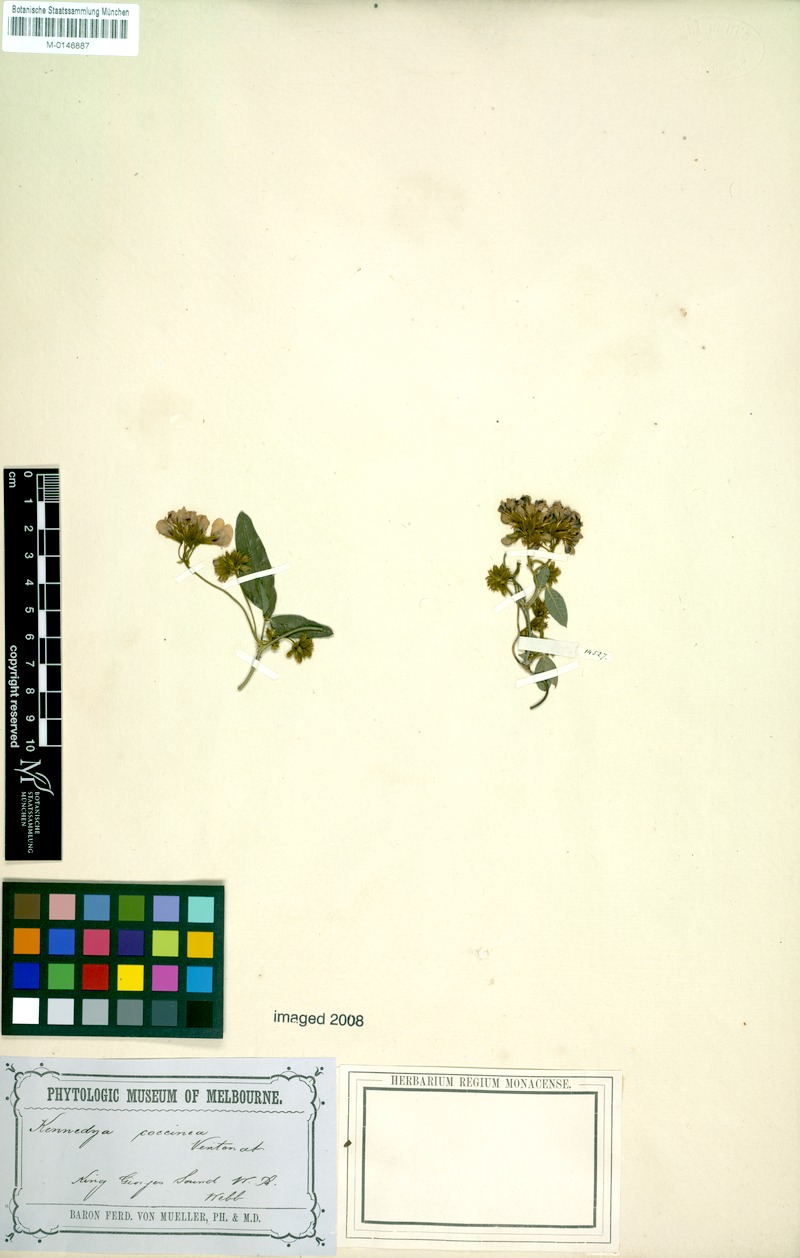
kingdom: Plantae
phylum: Tracheophyta
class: Magnoliopsida
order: Fabales
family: Fabaceae
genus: Kennedia
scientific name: Kennedia coccinea
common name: Coralvine
